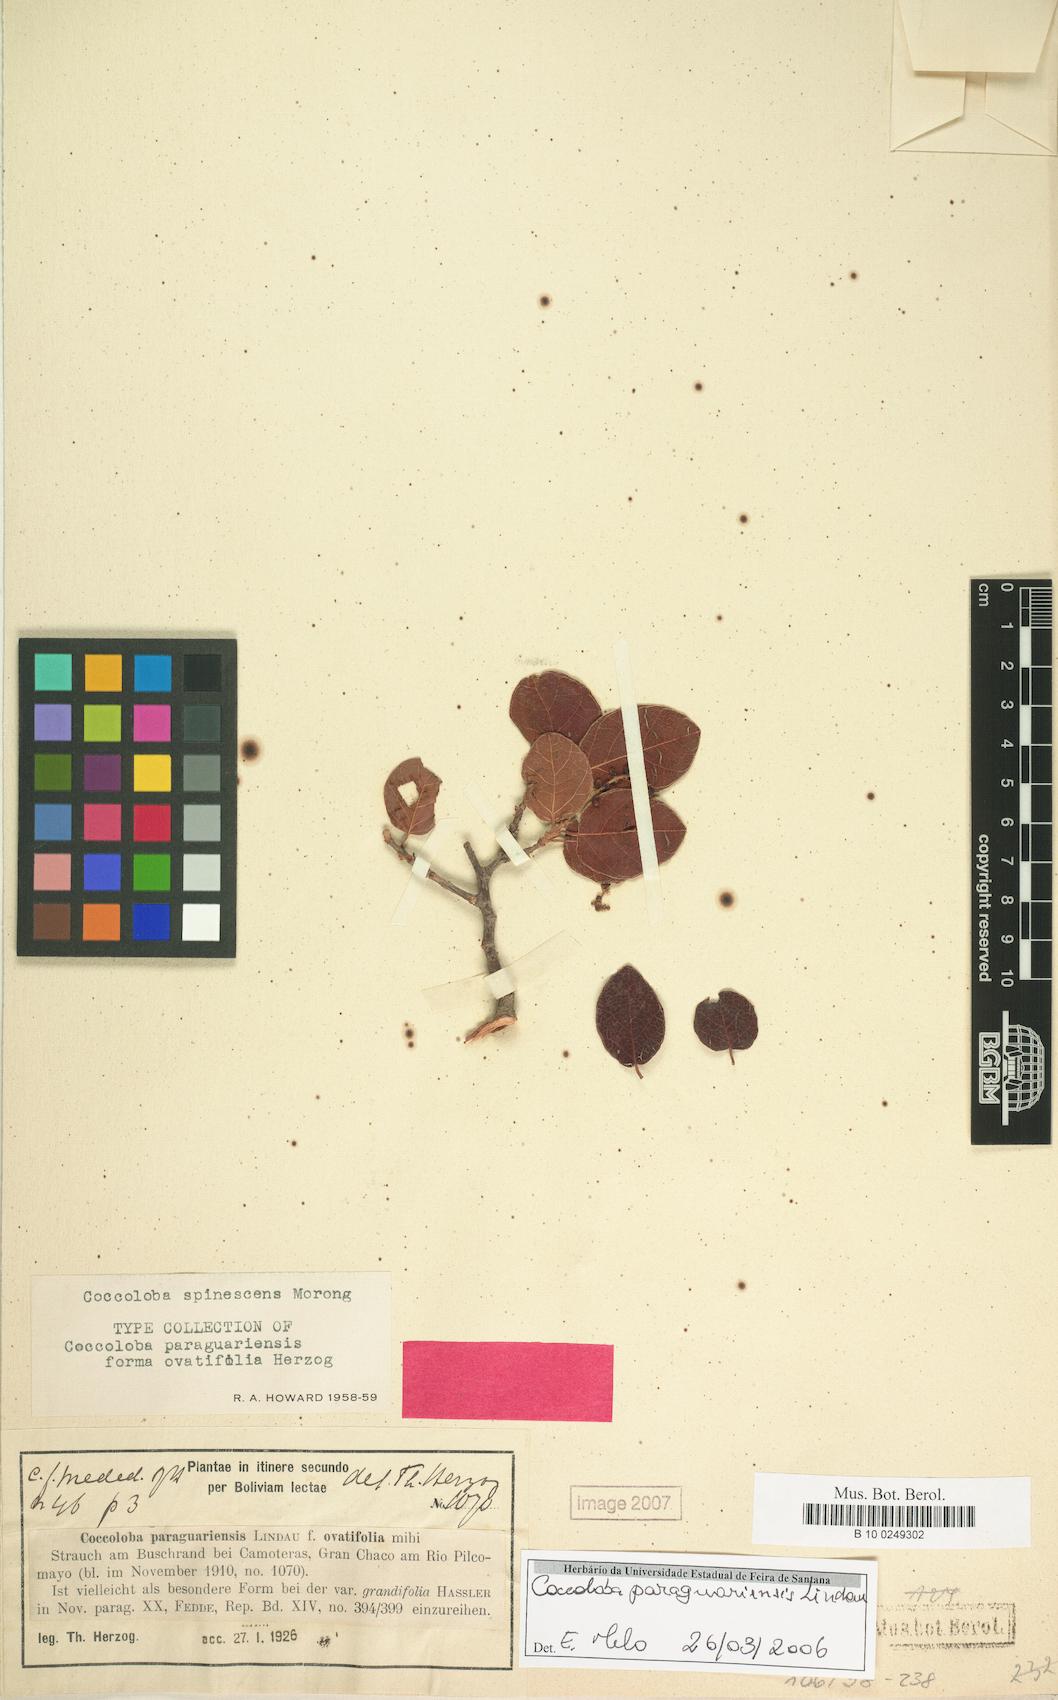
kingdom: Plantae
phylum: Tracheophyta
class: Magnoliopsida
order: Caryophyllales
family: Polygonaceae
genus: Coccoloba
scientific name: Coccoloba paraguariensis
